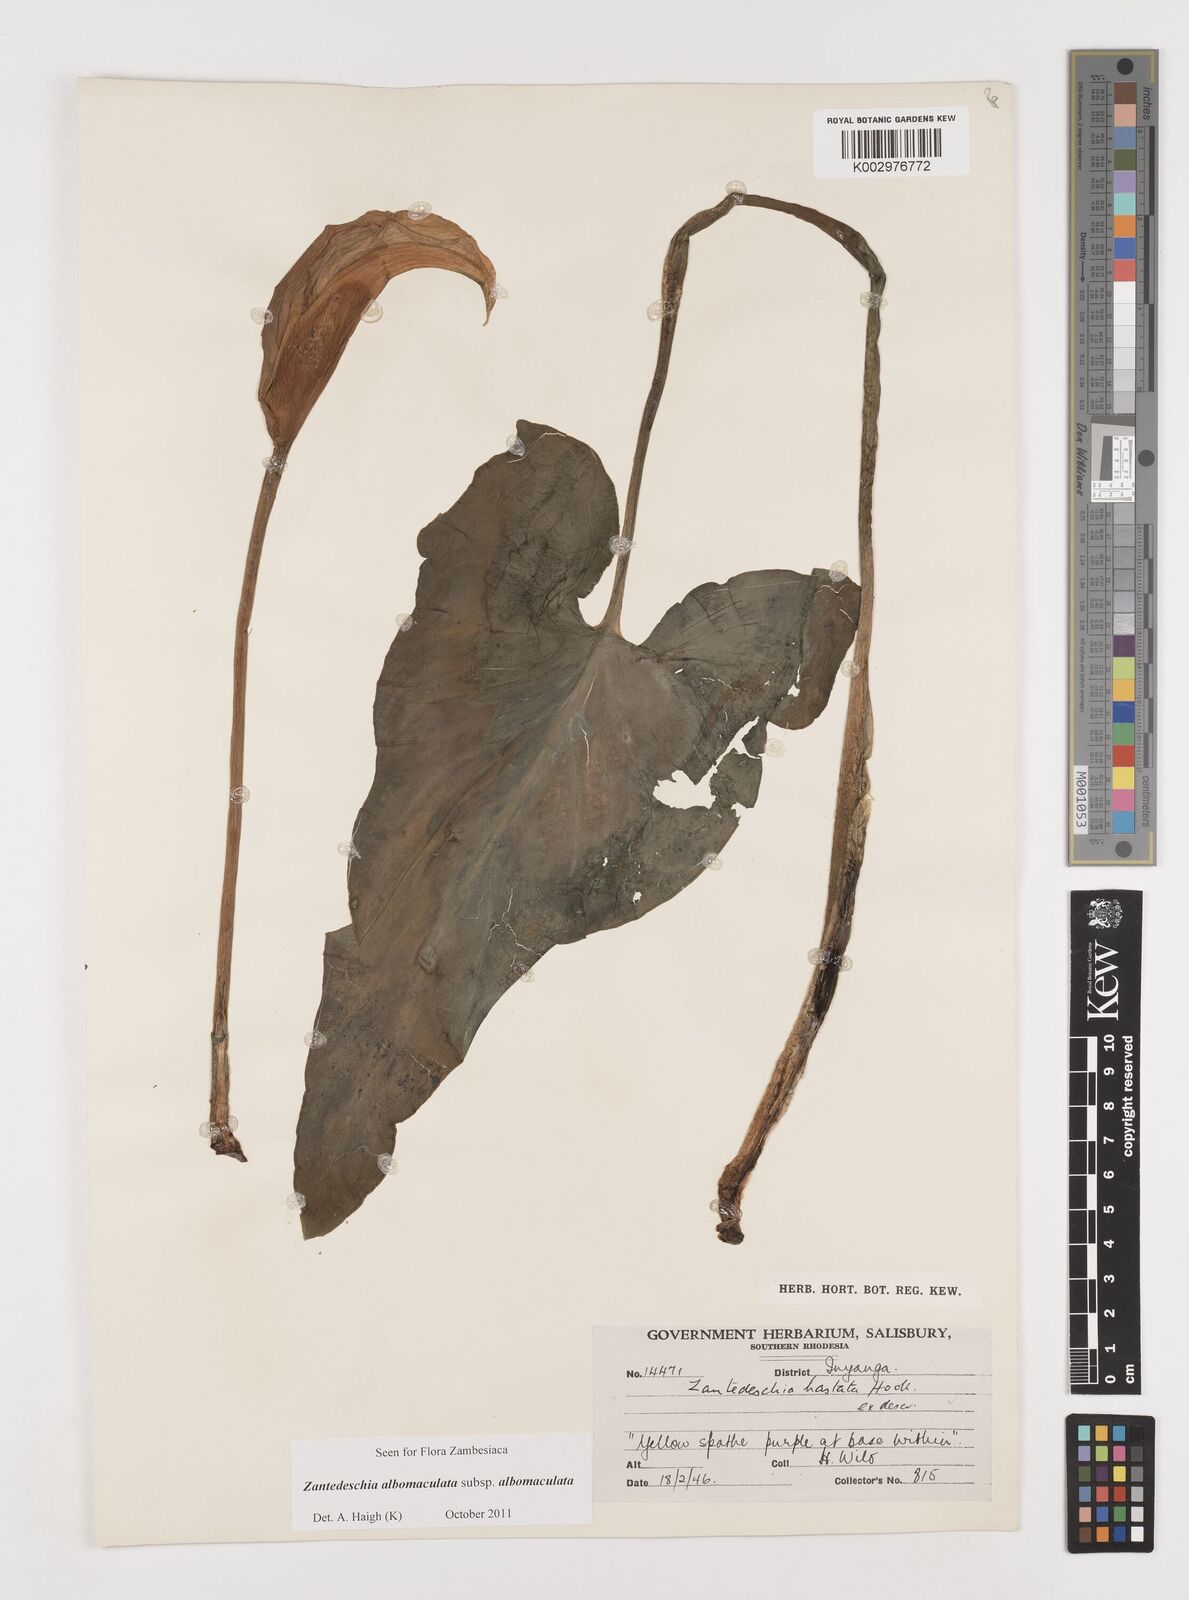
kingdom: Plantae
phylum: Tracheophyta
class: Liliopsida
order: Alismatales
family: Araceae
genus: Zantedeschia
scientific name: Zantedeschia albomaculata
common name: Spotted calla lily
